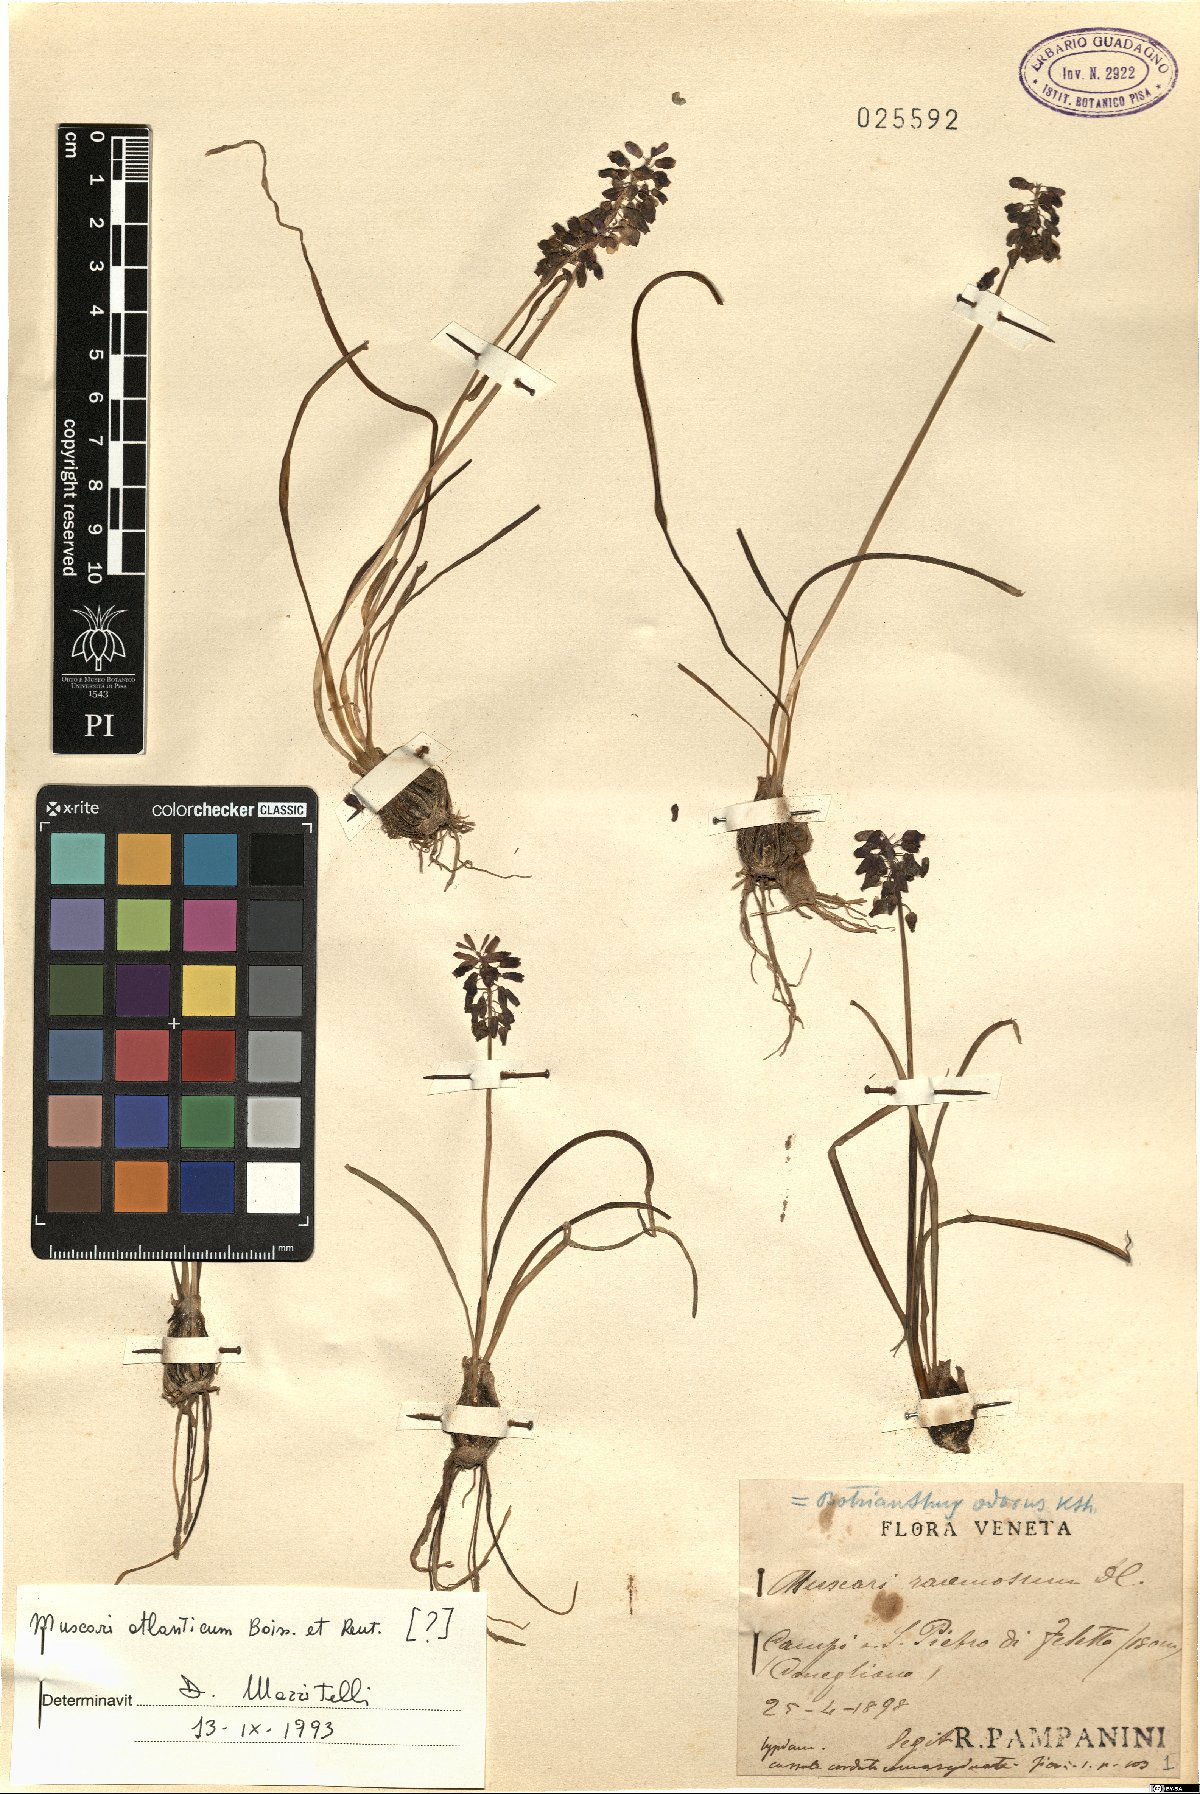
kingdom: Plantae
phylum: Tracheophyta
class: Liliopsida
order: Asparagales
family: Asparagaceae
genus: Muscari
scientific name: Muscari atlanticum
